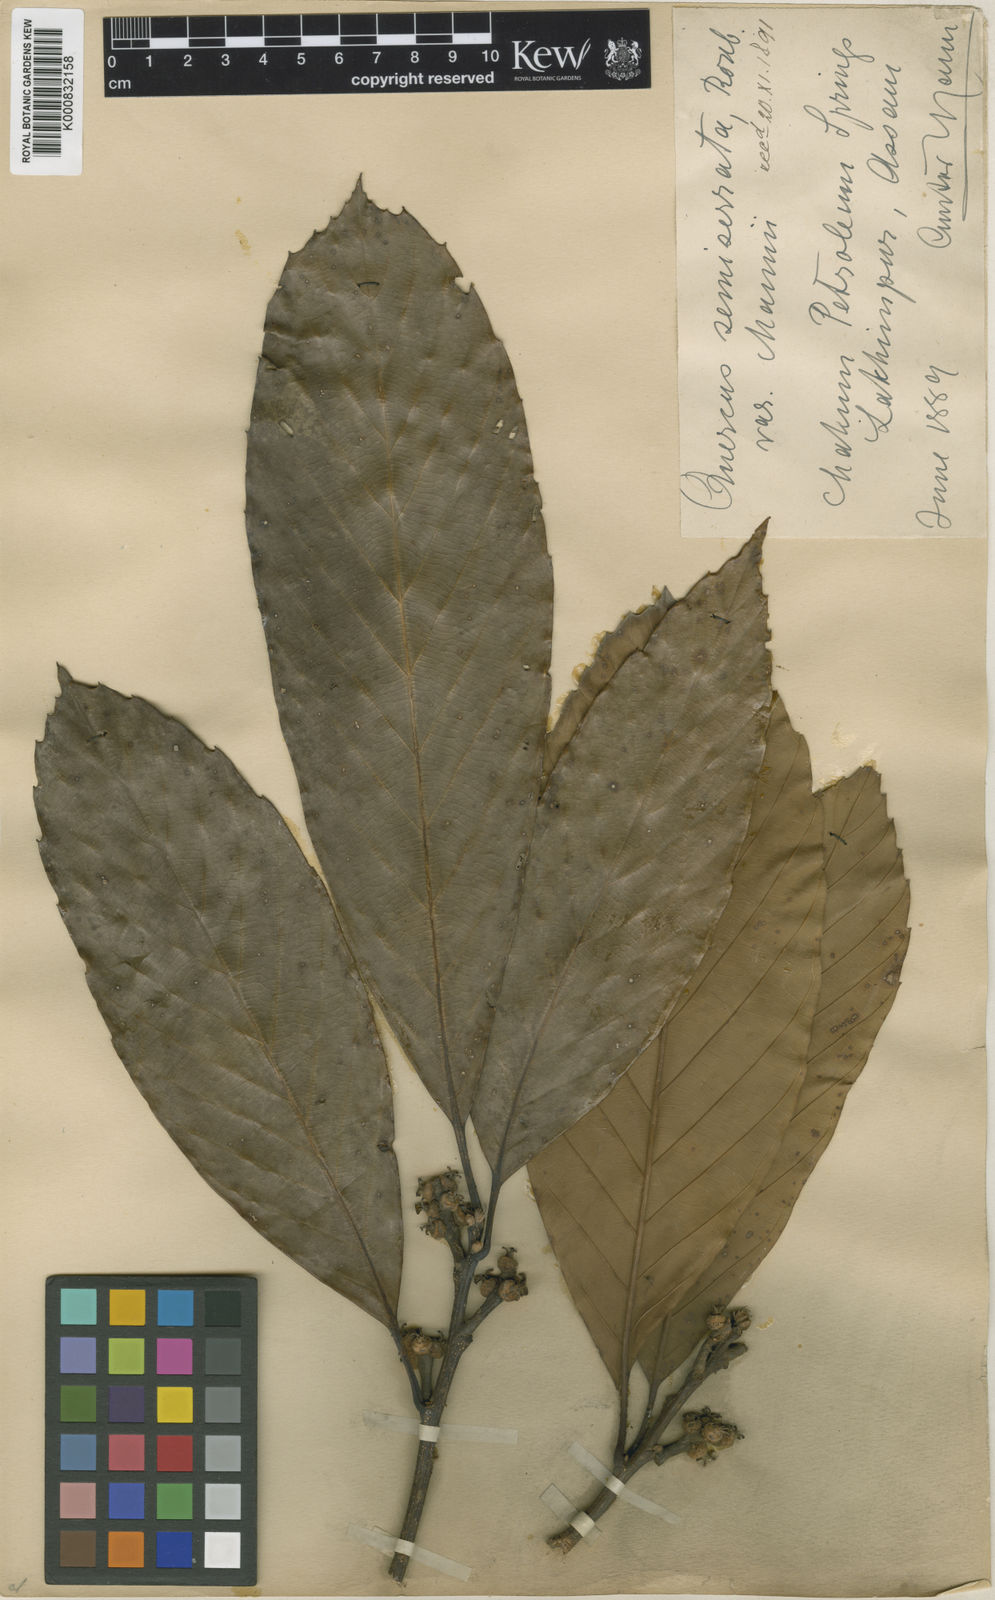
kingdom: Plantae
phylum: Tracheophyta
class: Magnoliopsida
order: Fagales
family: Fagaceae
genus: Quercus
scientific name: Quercus semiserrata
